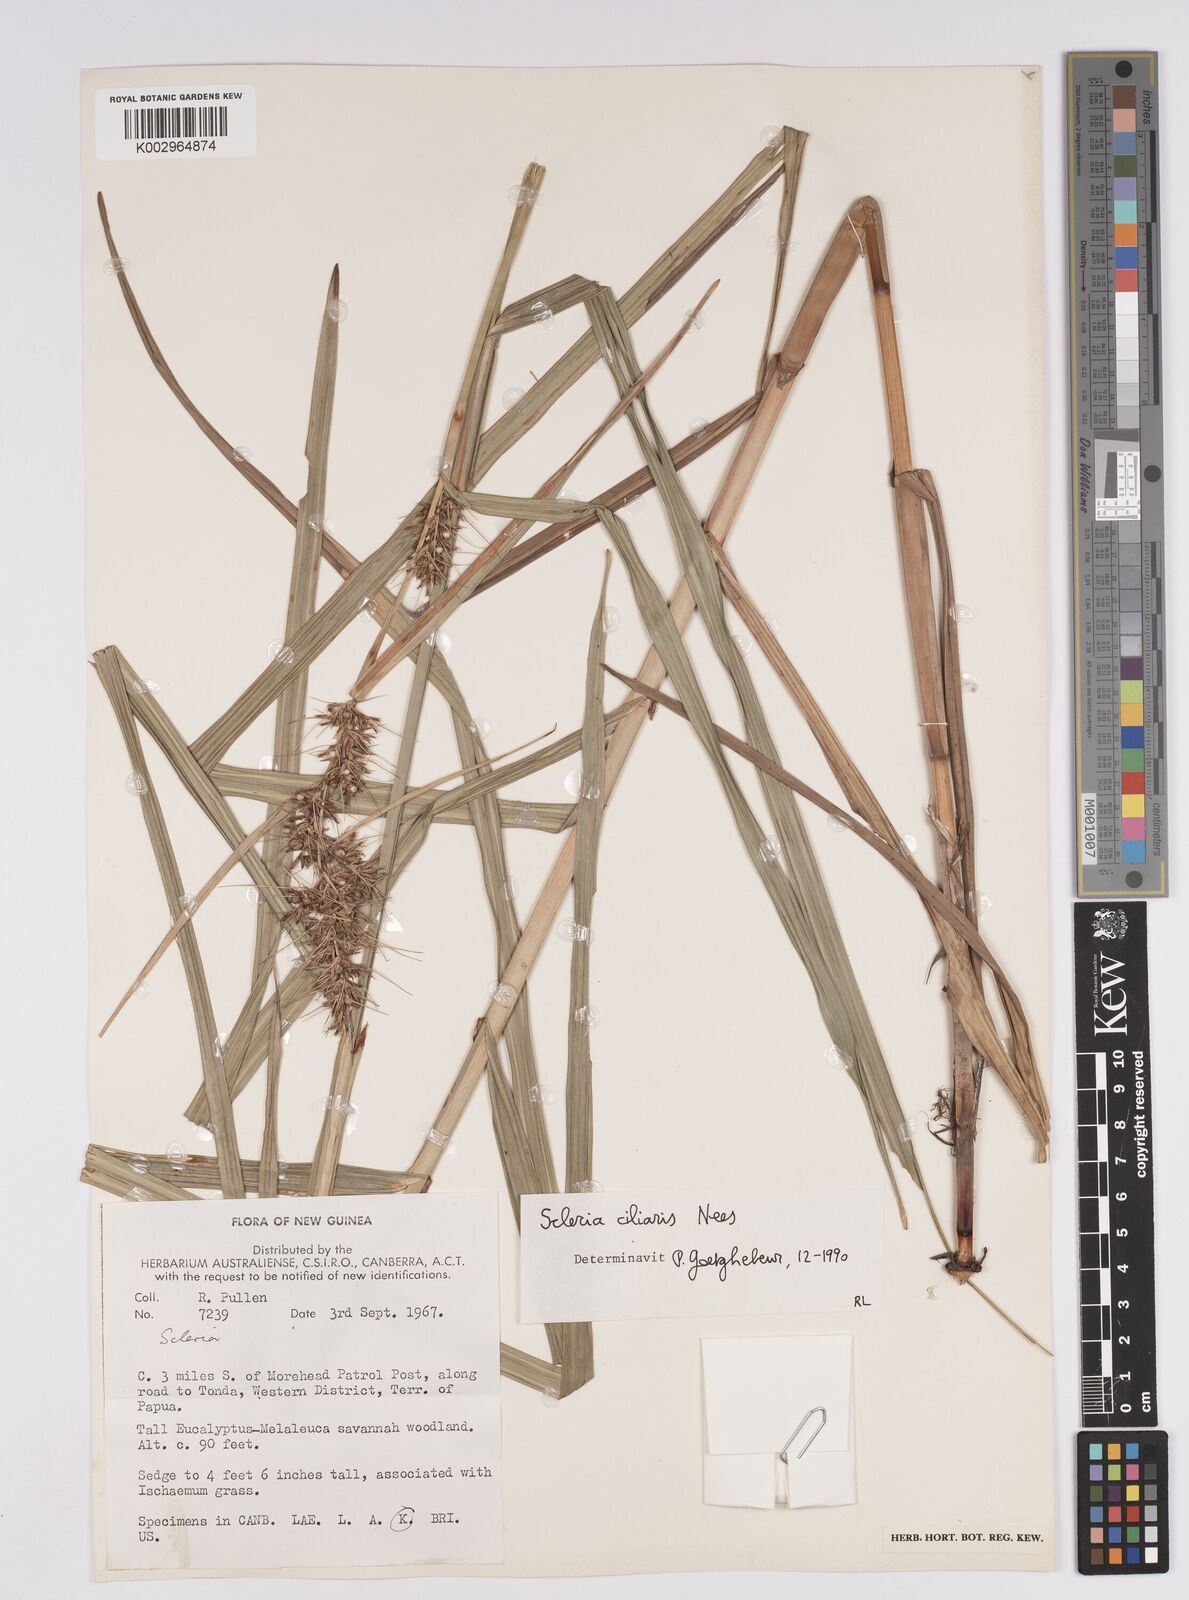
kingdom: Plantae
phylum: Tracheophyta
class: Liliopsida
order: Poales
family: Cyperaceae
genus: Scleria
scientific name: Scleria ciliaris
